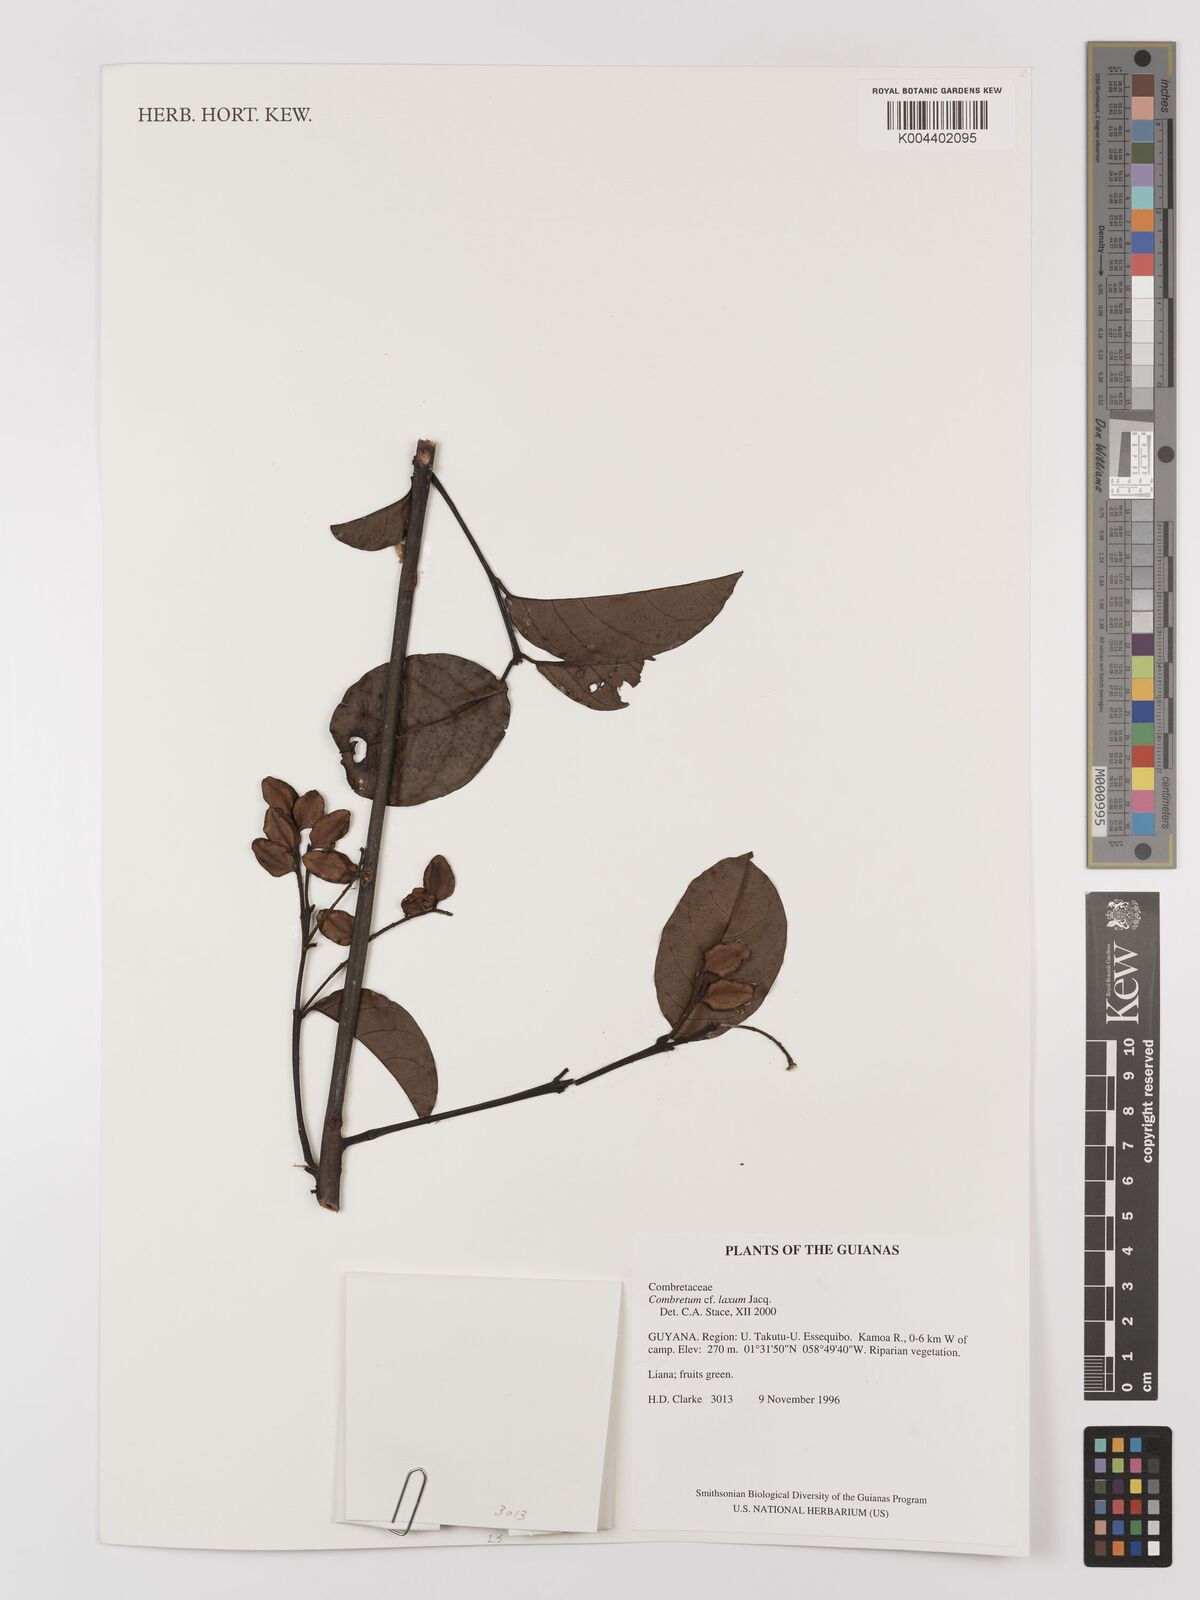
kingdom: Plantae
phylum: Tracheophyta
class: Magnoliopsida
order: Myrtales
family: Combretaceae
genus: Combretum
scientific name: Combretum
